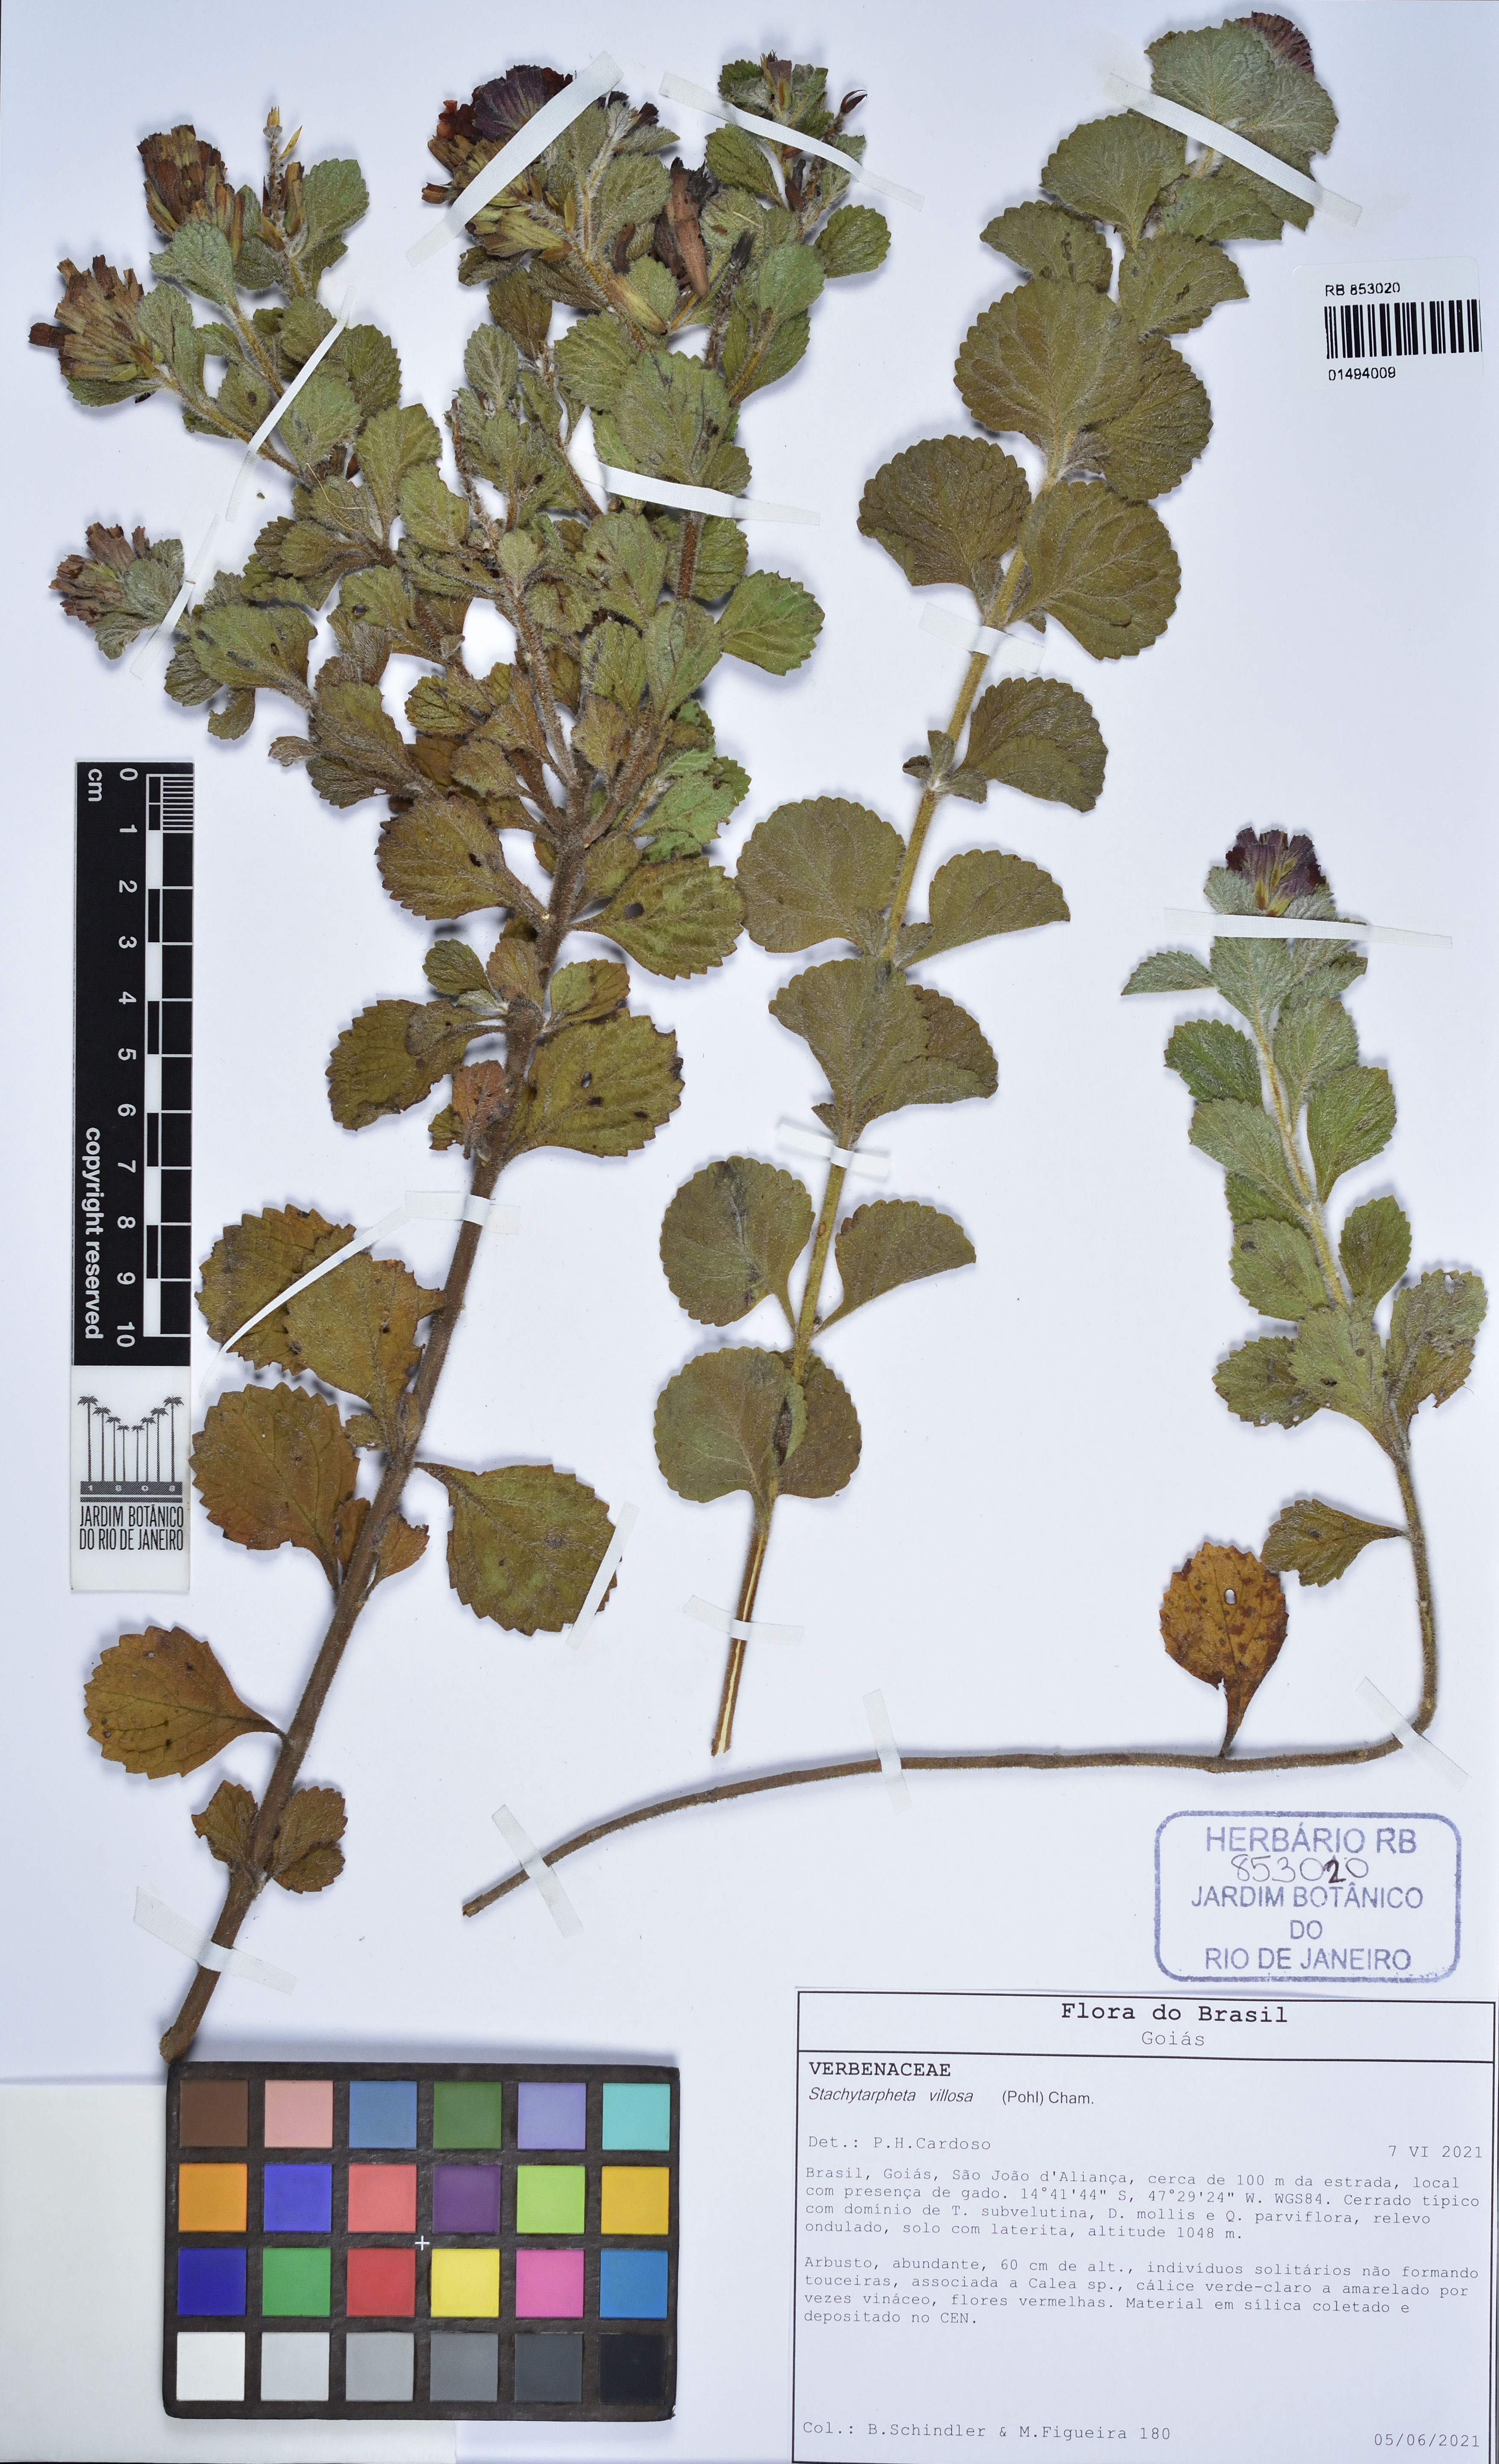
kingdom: Plantae
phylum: Tracheophyta
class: Magnoliopsida
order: Lamiales
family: Verbenaceae
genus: Stachytarpheta
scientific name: Stachytarpheta villosa
